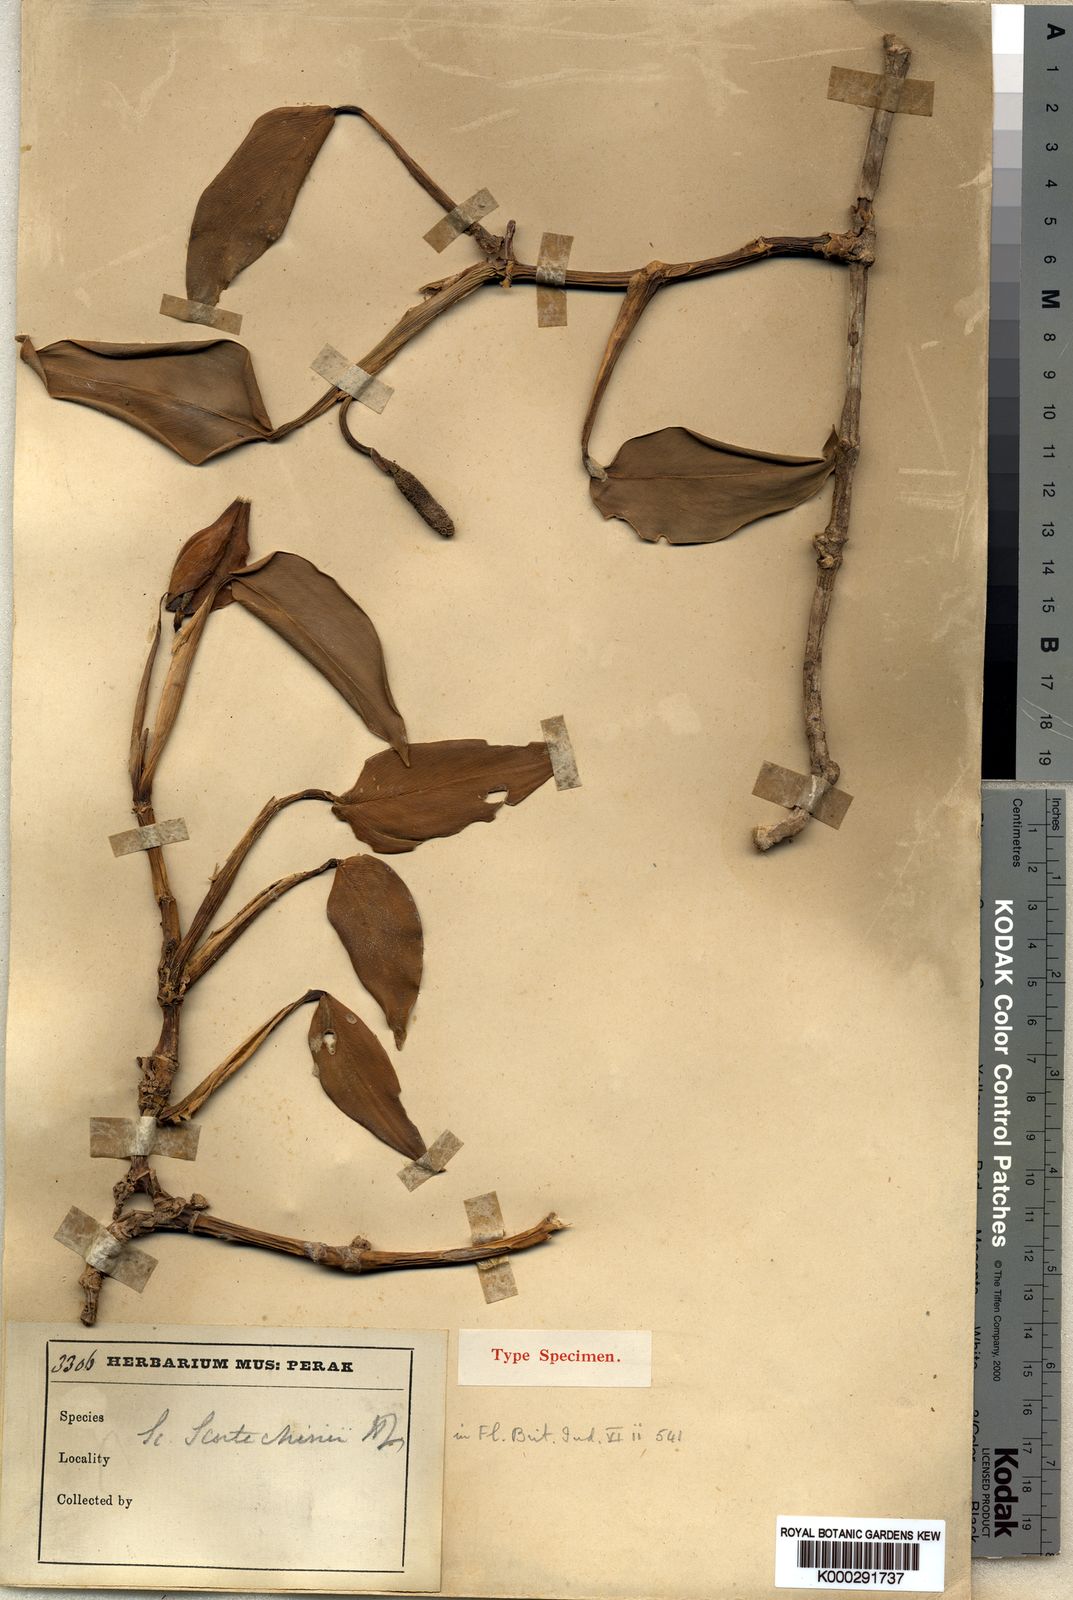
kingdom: Plantae
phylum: Tracheophyta
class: Liliopsida
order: Alismatales
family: Araceae
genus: Scindapsus
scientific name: Scindapsus scortechinii
